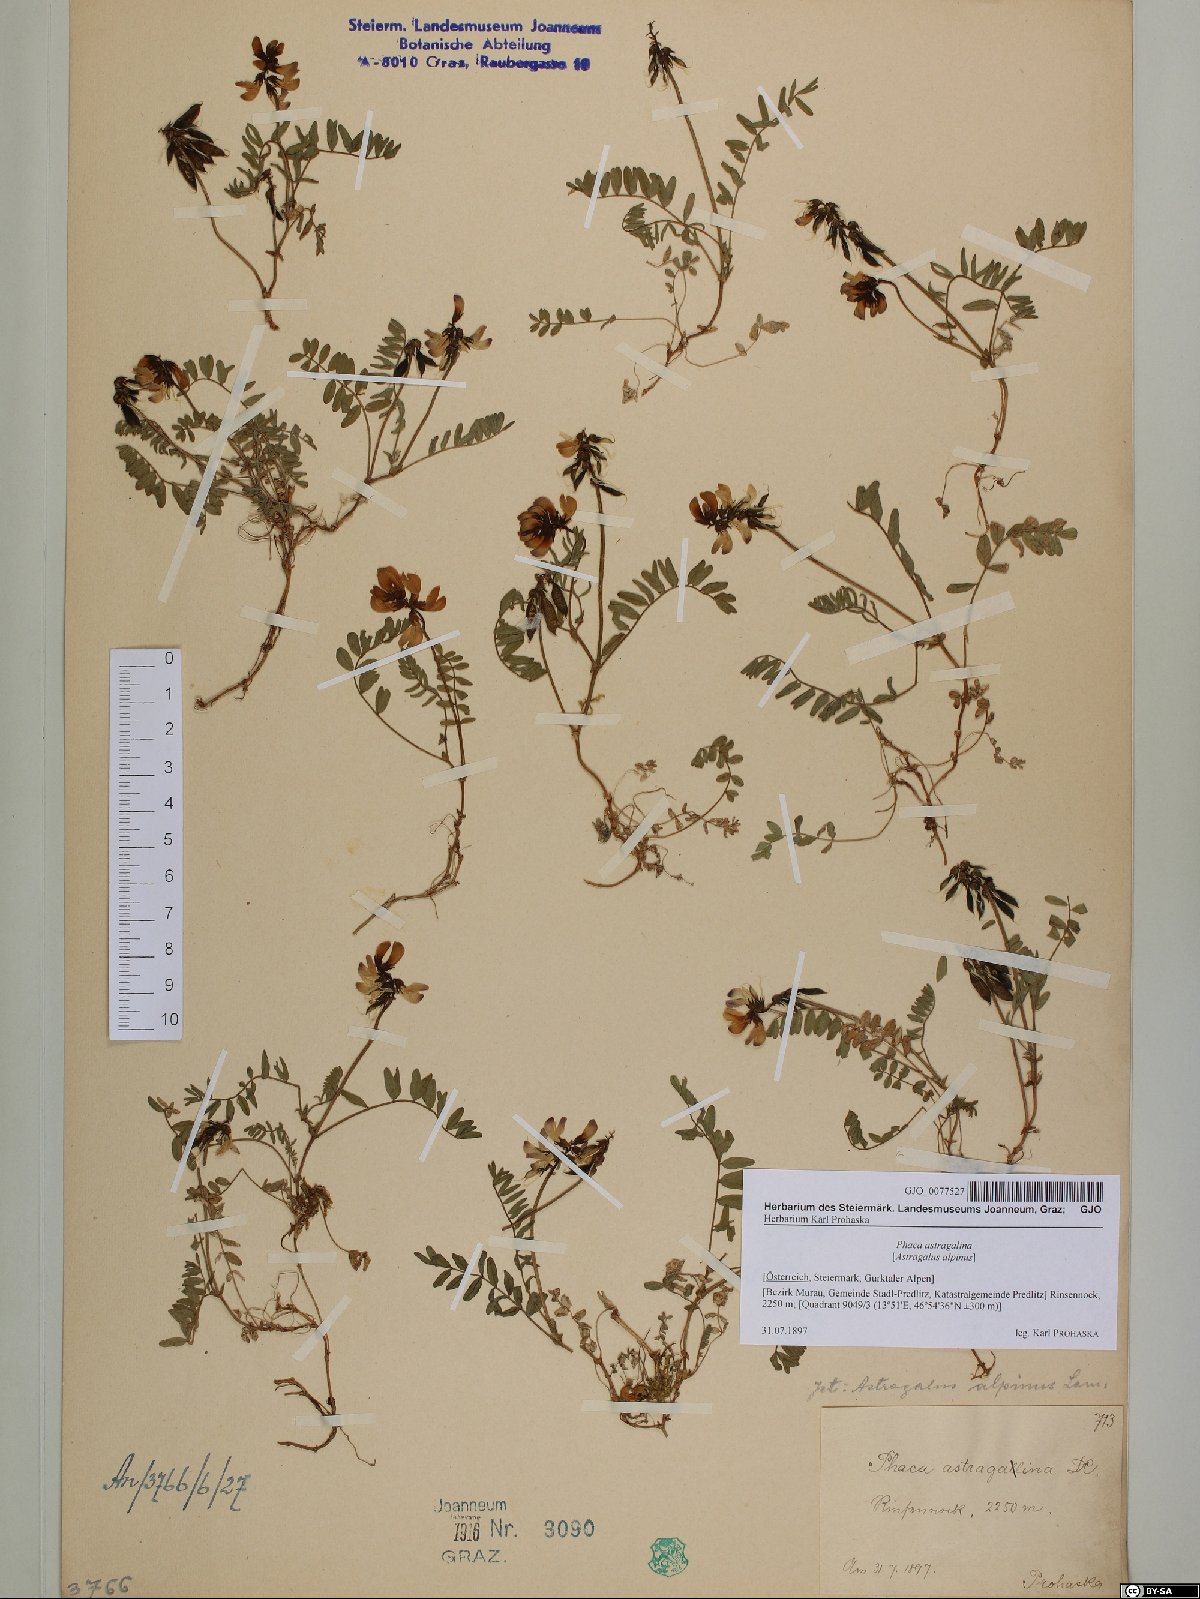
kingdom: Plantae
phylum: Tracheophyta
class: Magnoliopsida
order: Fabales
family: Fabaceae
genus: Astragalus
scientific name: Astragalus alpinus
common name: Alpine milk-vetch
